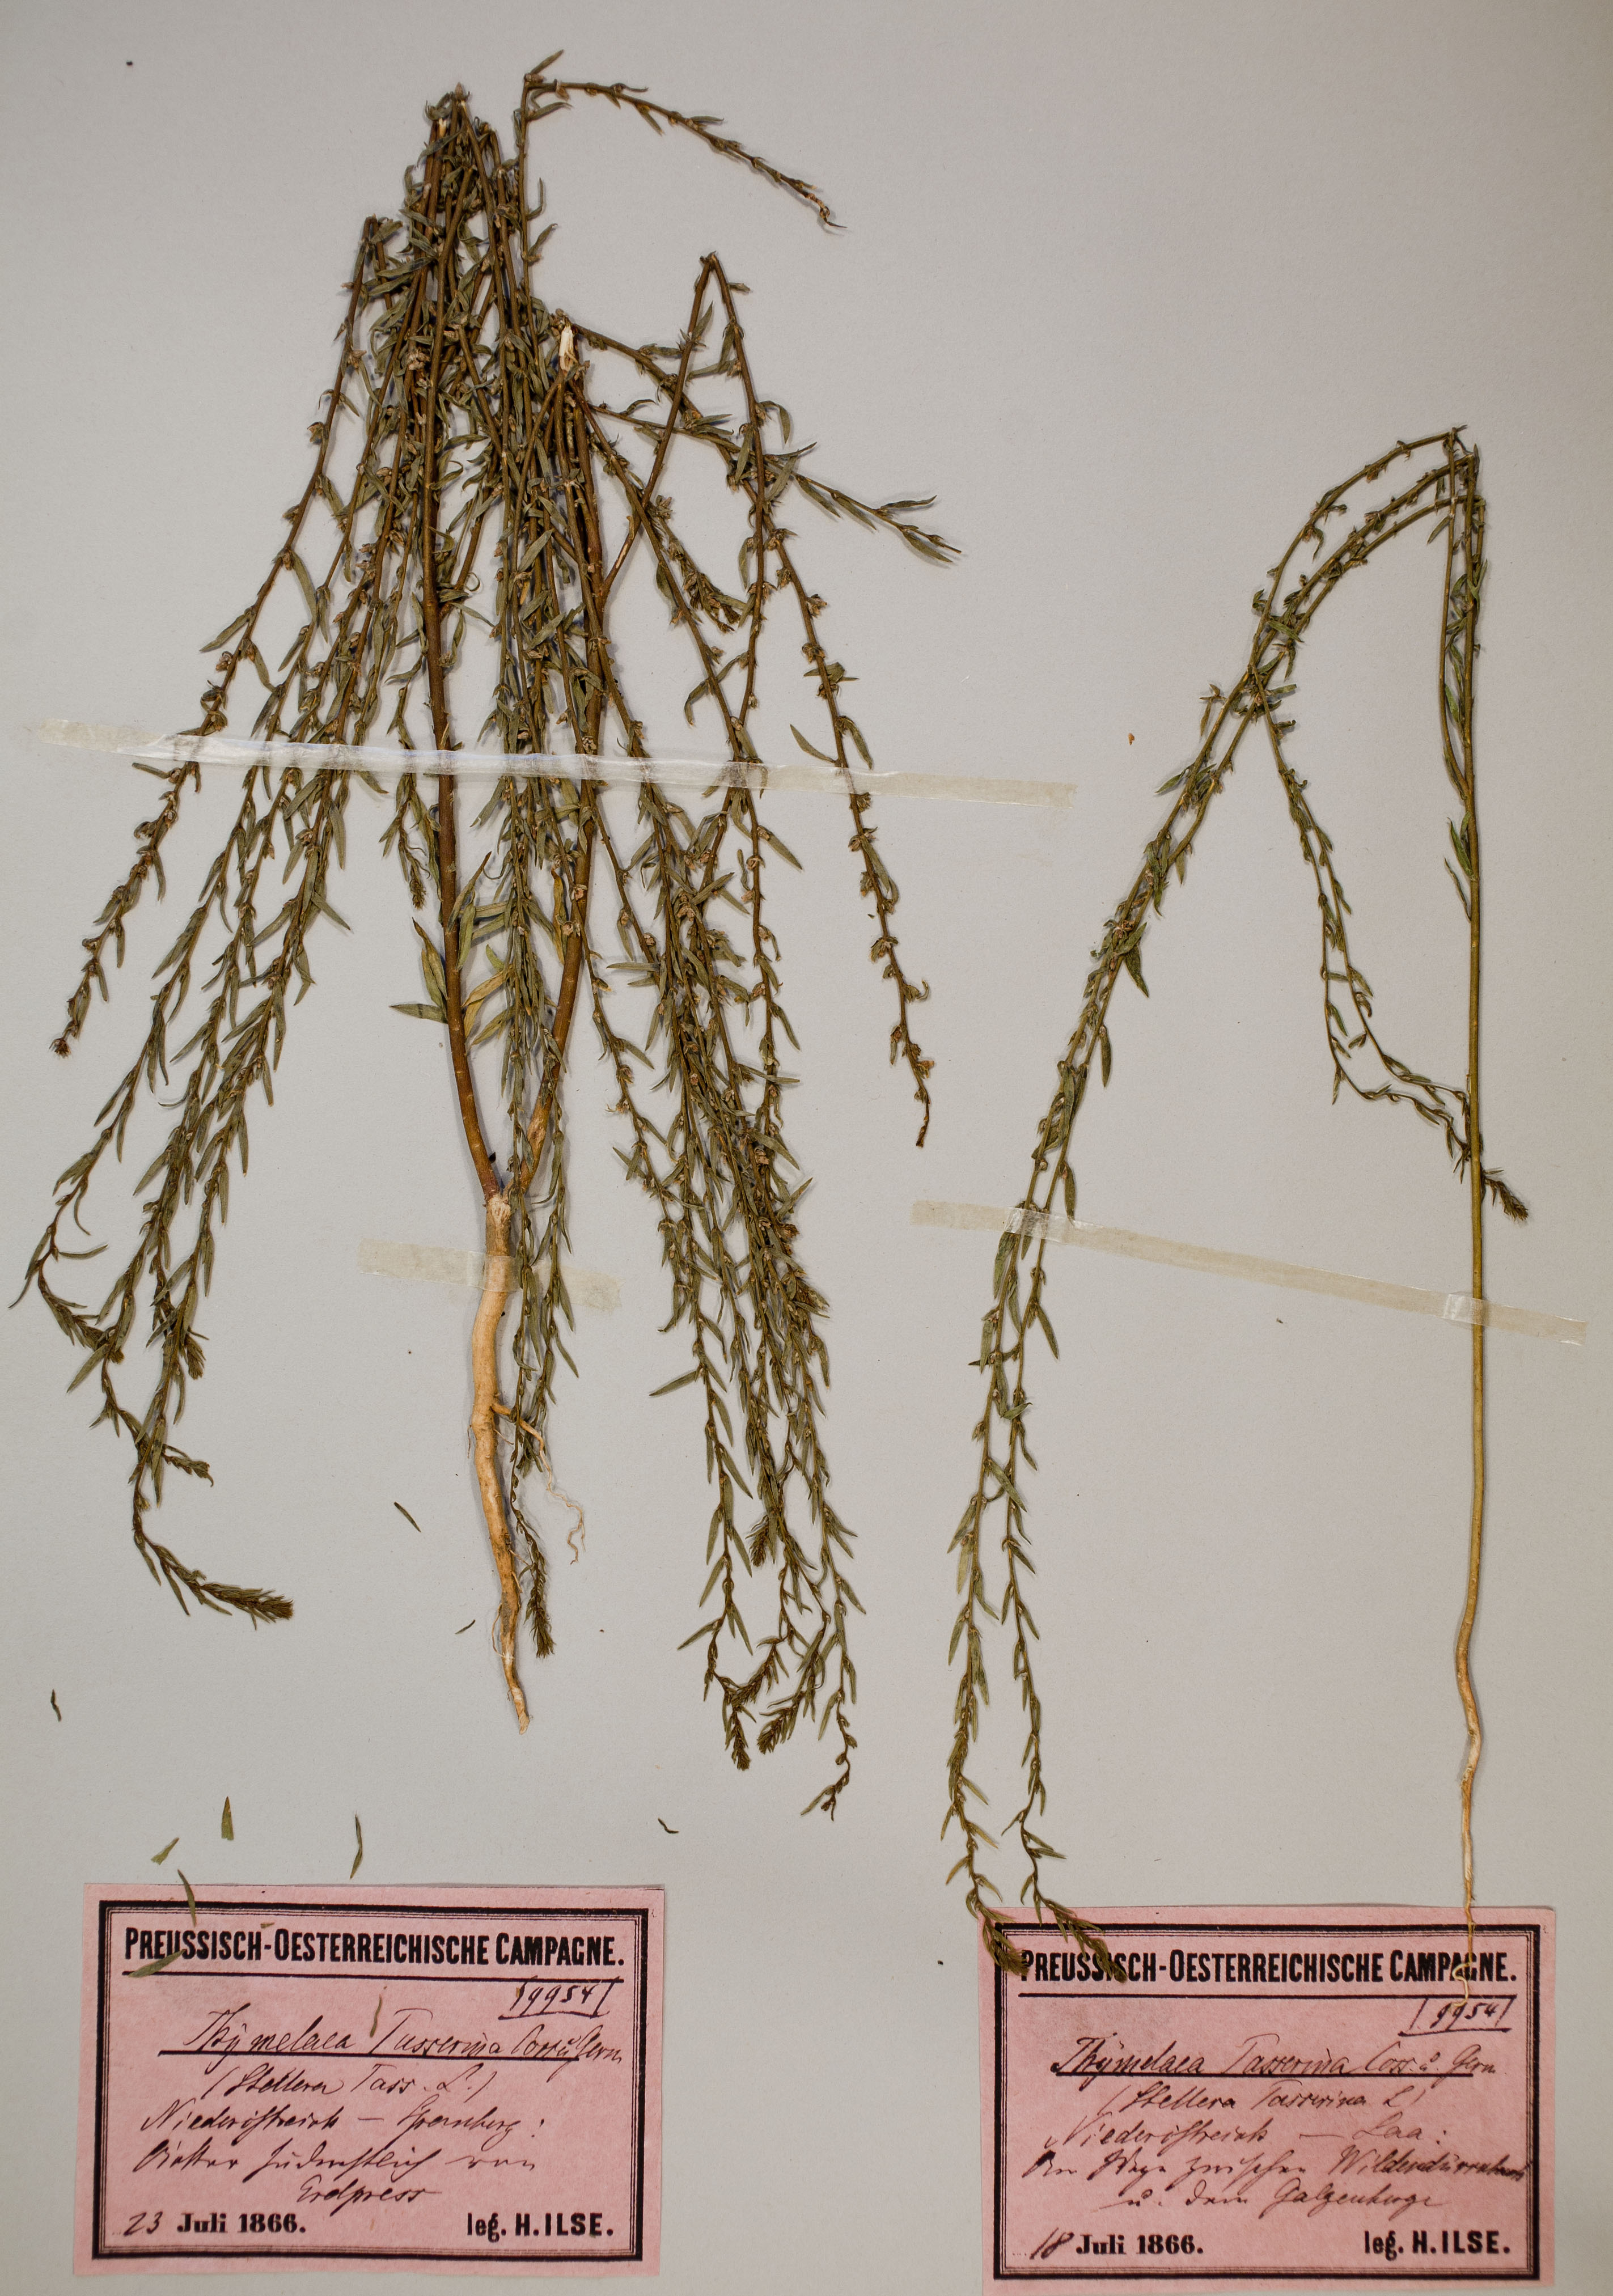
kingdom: Plantae
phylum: Tracheophyta
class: Magnoliopsida
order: Malvales
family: Thymelaeaceae
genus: Thymelaea
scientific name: Thymelaea passerina
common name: Annual thymelaea
